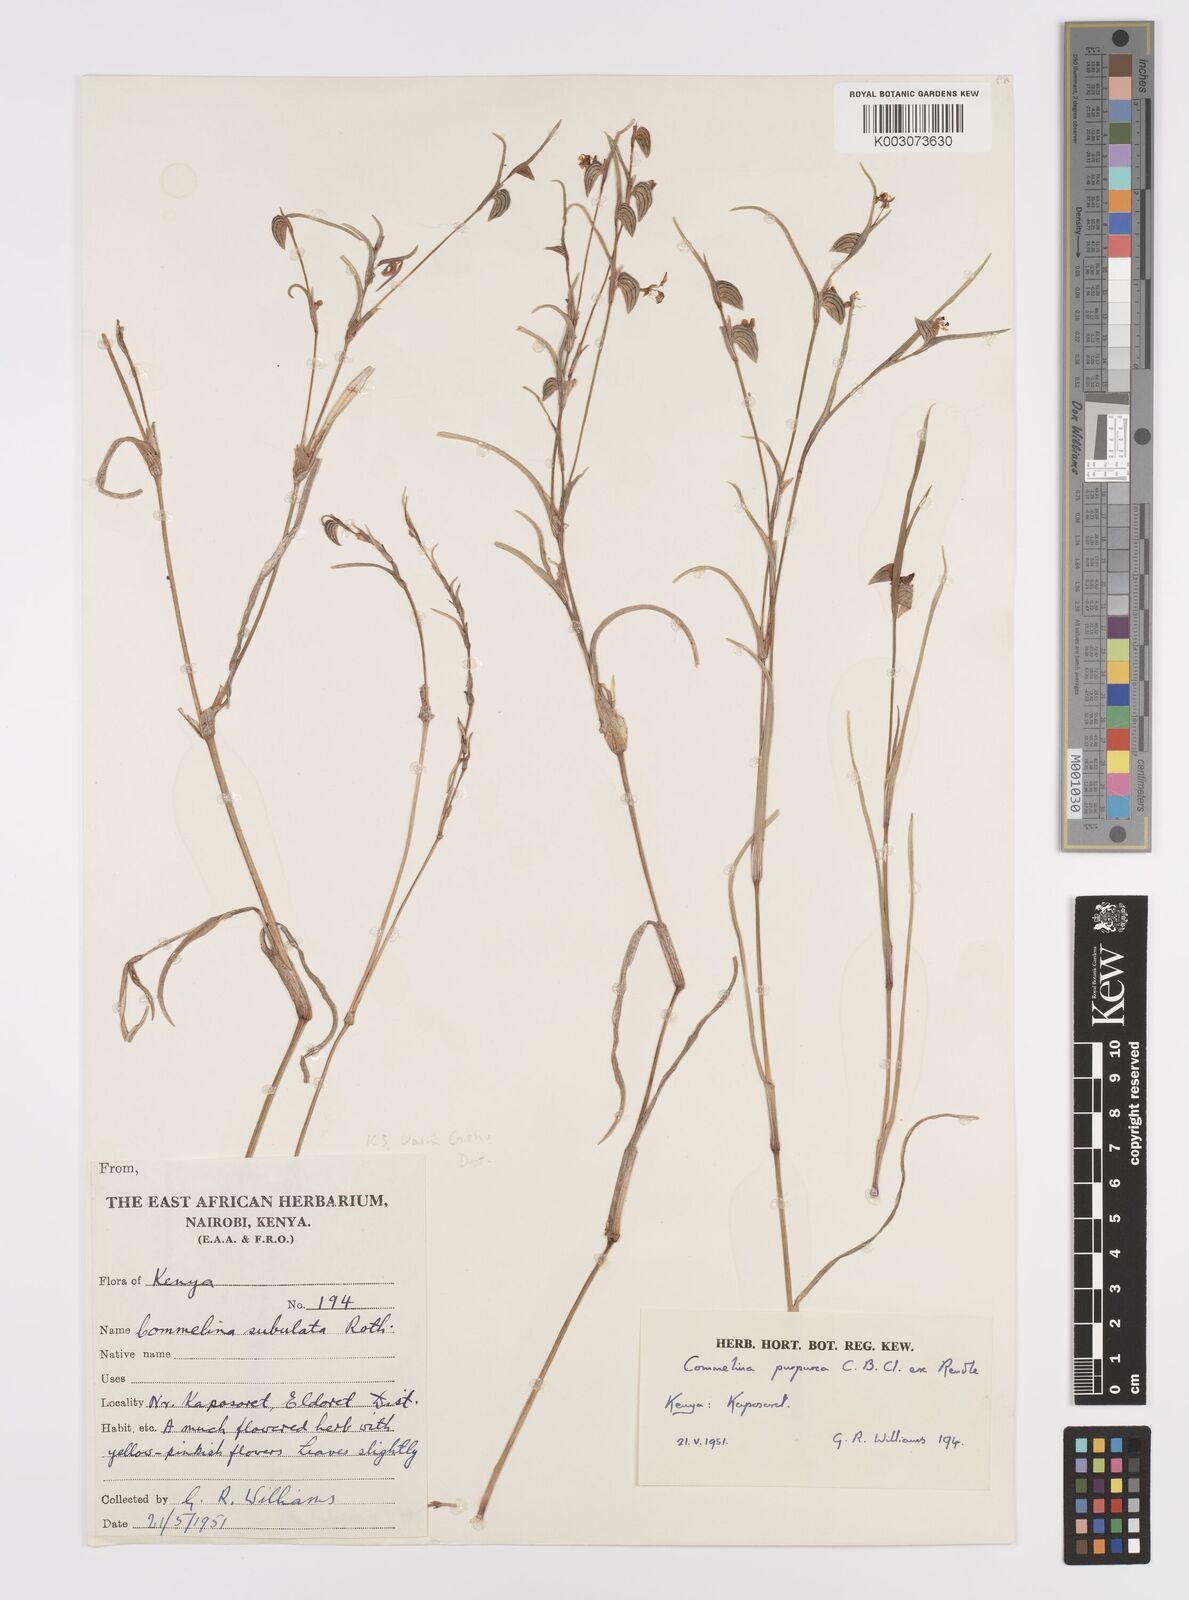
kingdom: Plantae
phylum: Tracheophyta
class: Liliopsida
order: Commelinales
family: Commelinaceae
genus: Commelina
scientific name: Commelina purpurea
